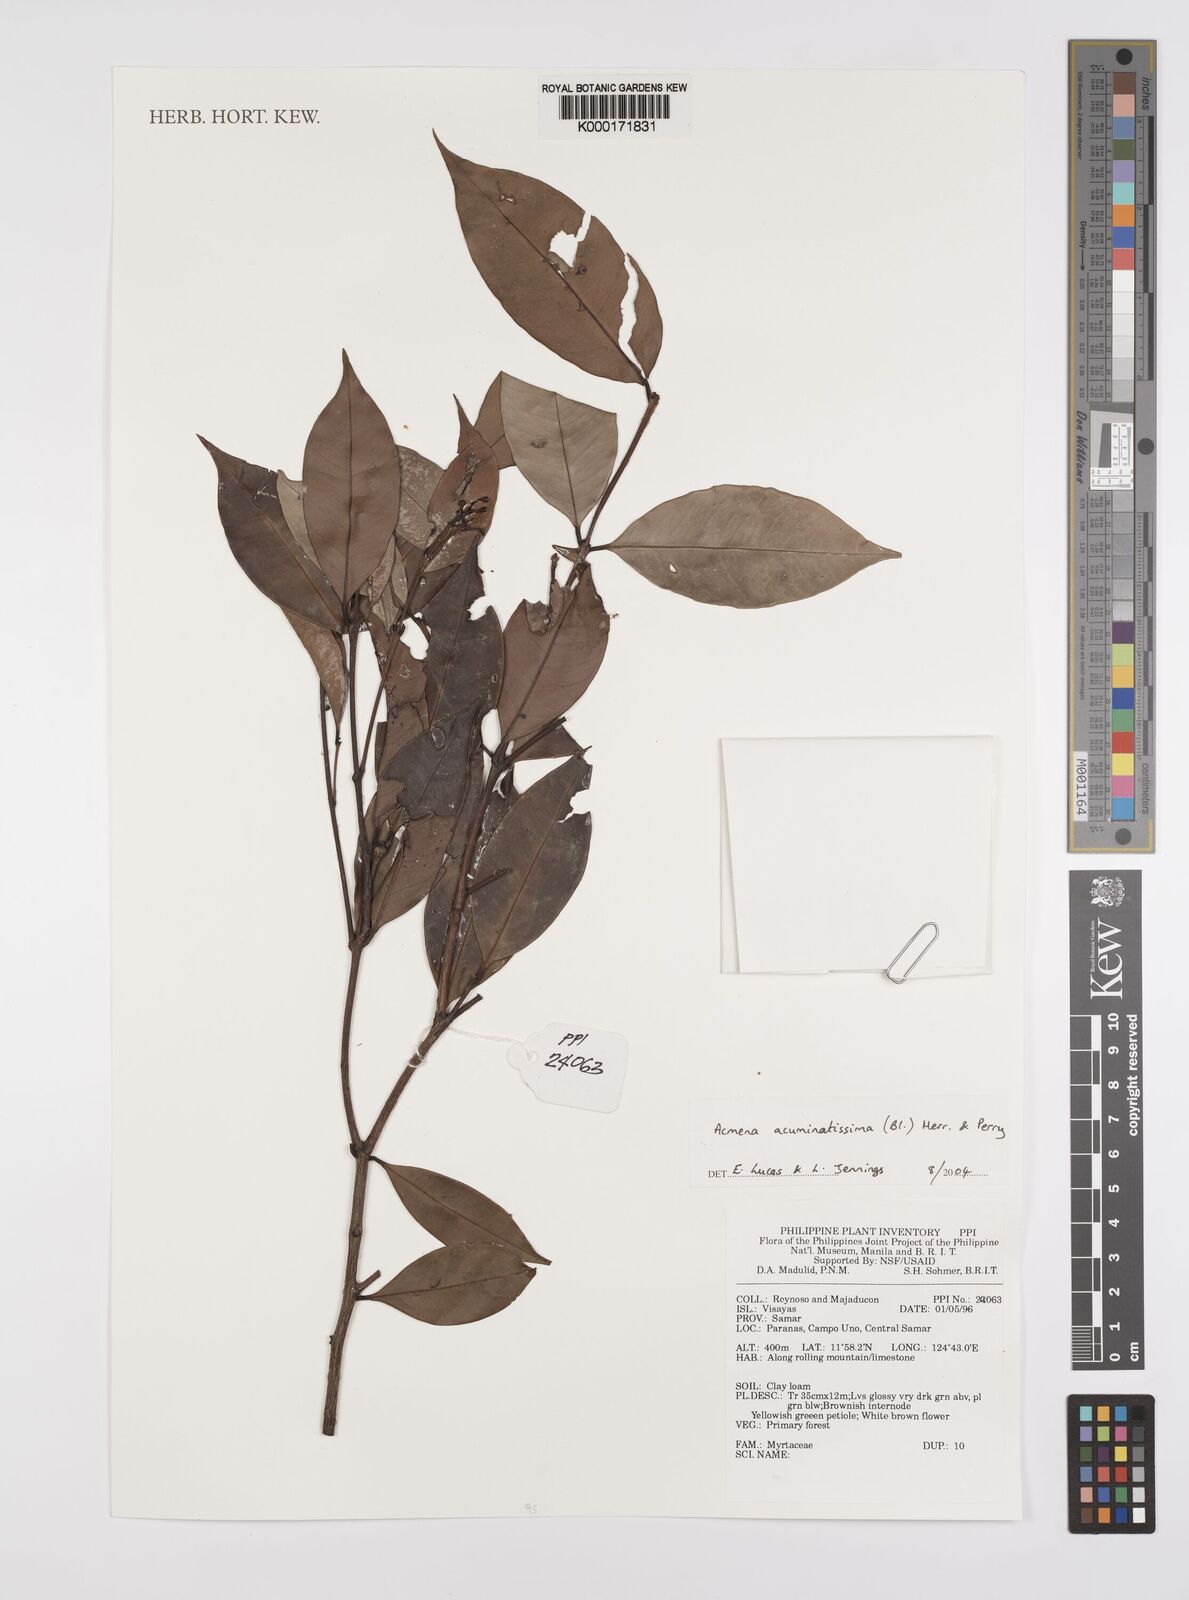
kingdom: Plantae
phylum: Tracheophyta
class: Magnoliopsida
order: Myrtales
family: Myrtaceae
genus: Syzygium
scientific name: Syzygium
